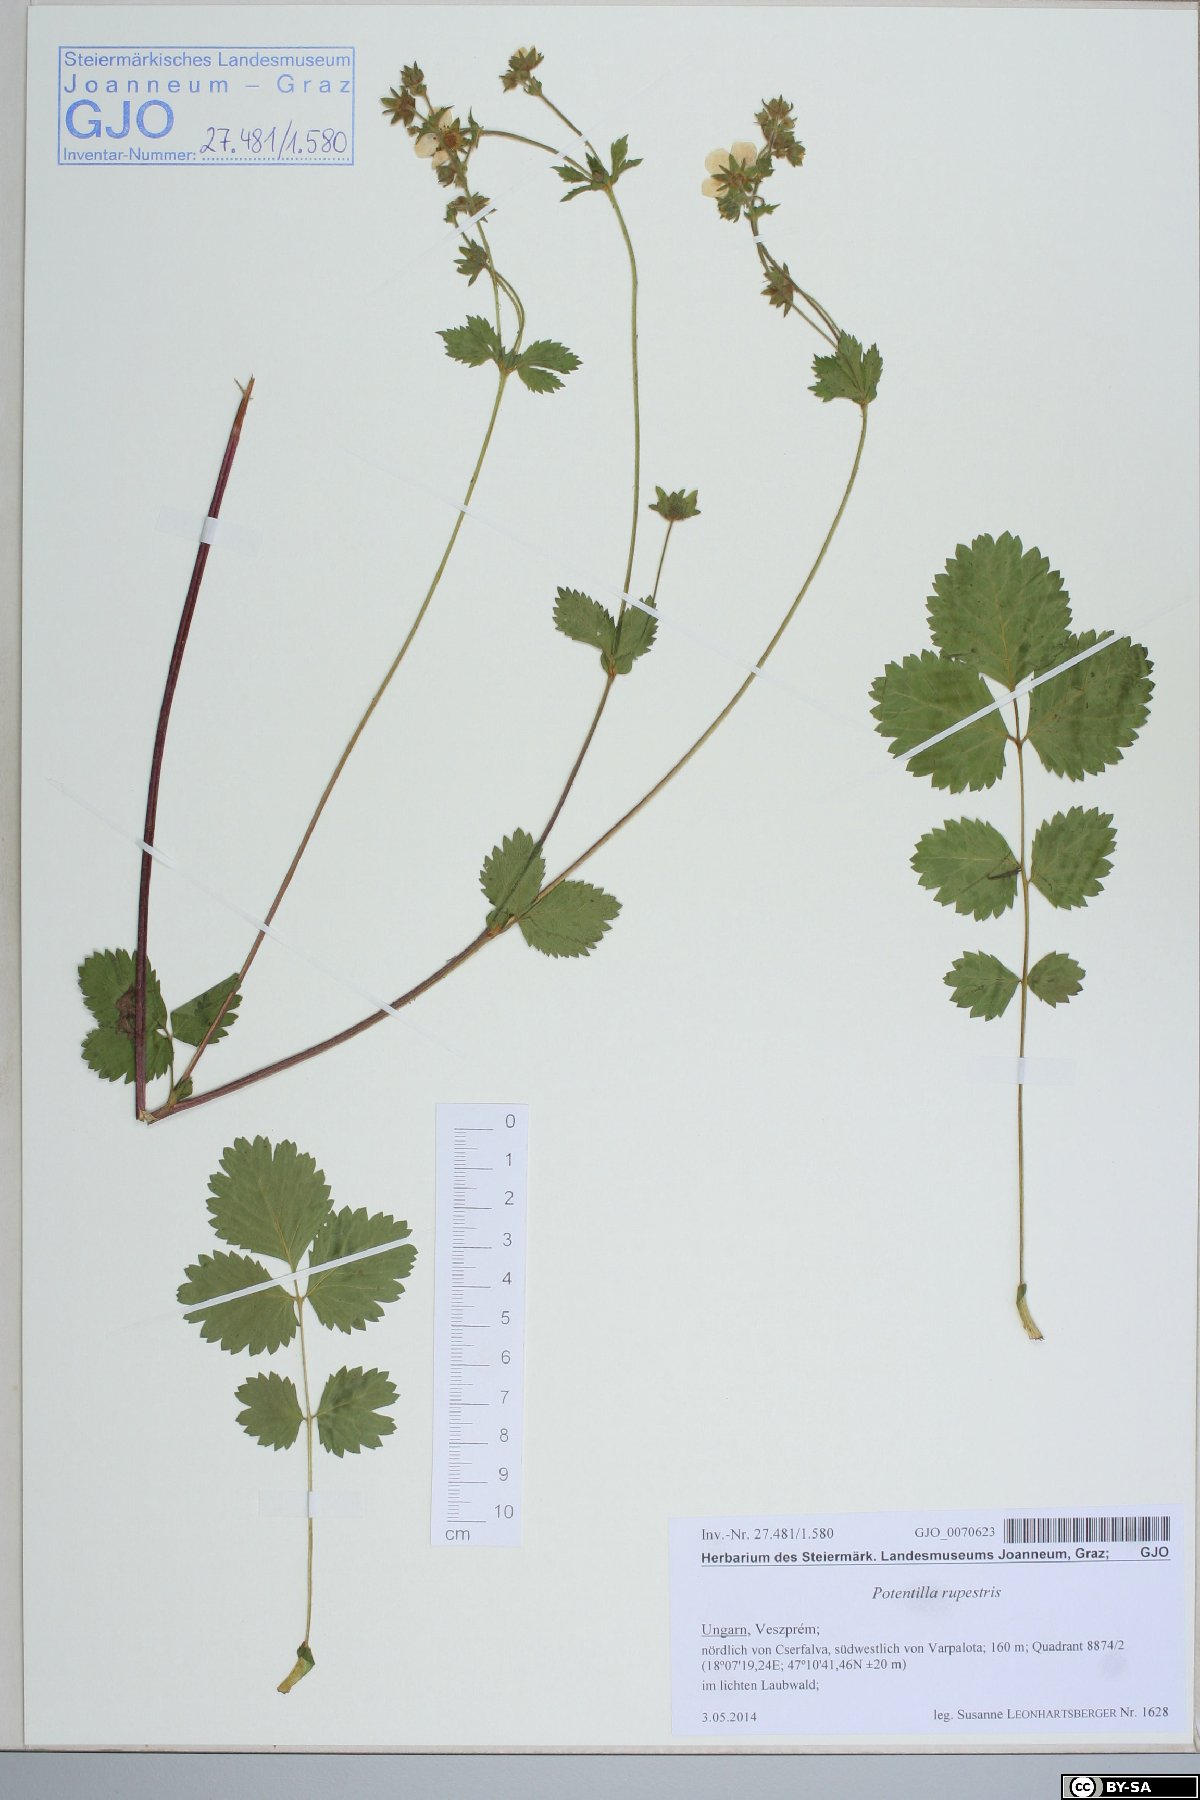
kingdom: Plantae
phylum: Tracheophyta
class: Magnoliopsida
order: Rosales
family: Rosaceae
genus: Drymocallis
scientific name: Drymocallis rupestris
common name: Rock cinquefoil
